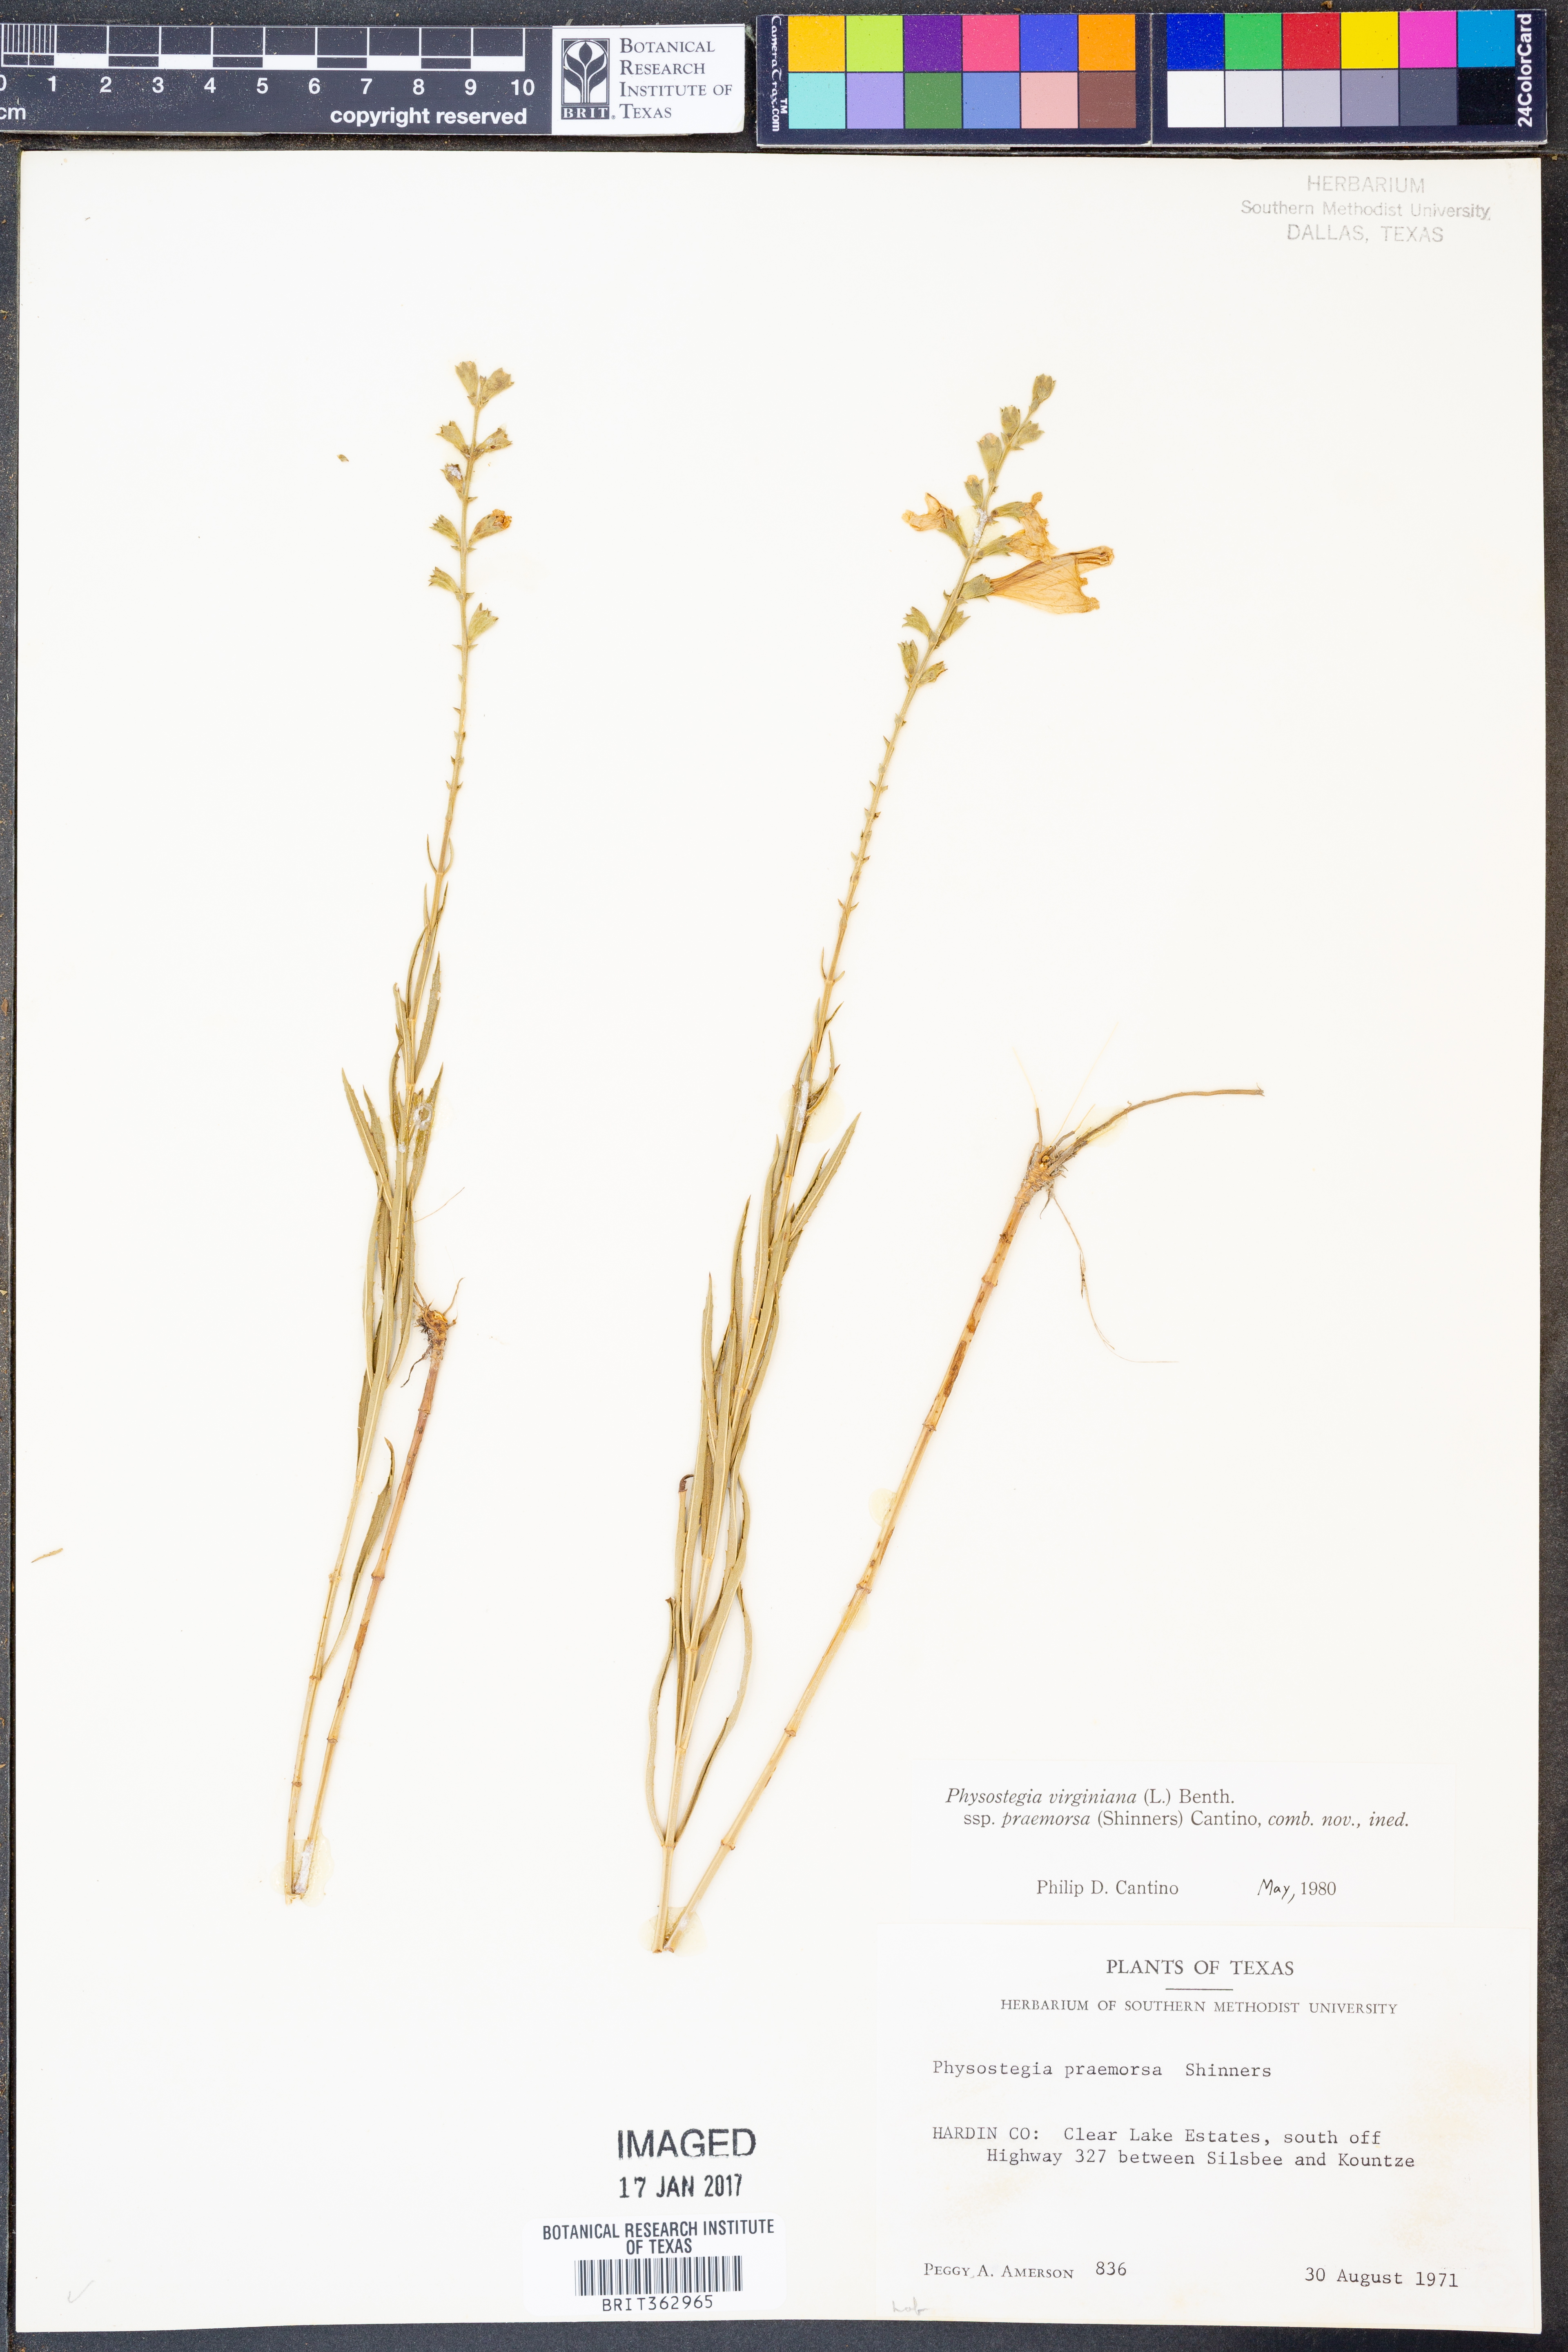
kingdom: Plantae
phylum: Tracheophyta
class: Magnoliopsida
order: Lamiales
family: Lamiaceae
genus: Physostegia
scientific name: Physostegia virginiana
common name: Obedient-plant
